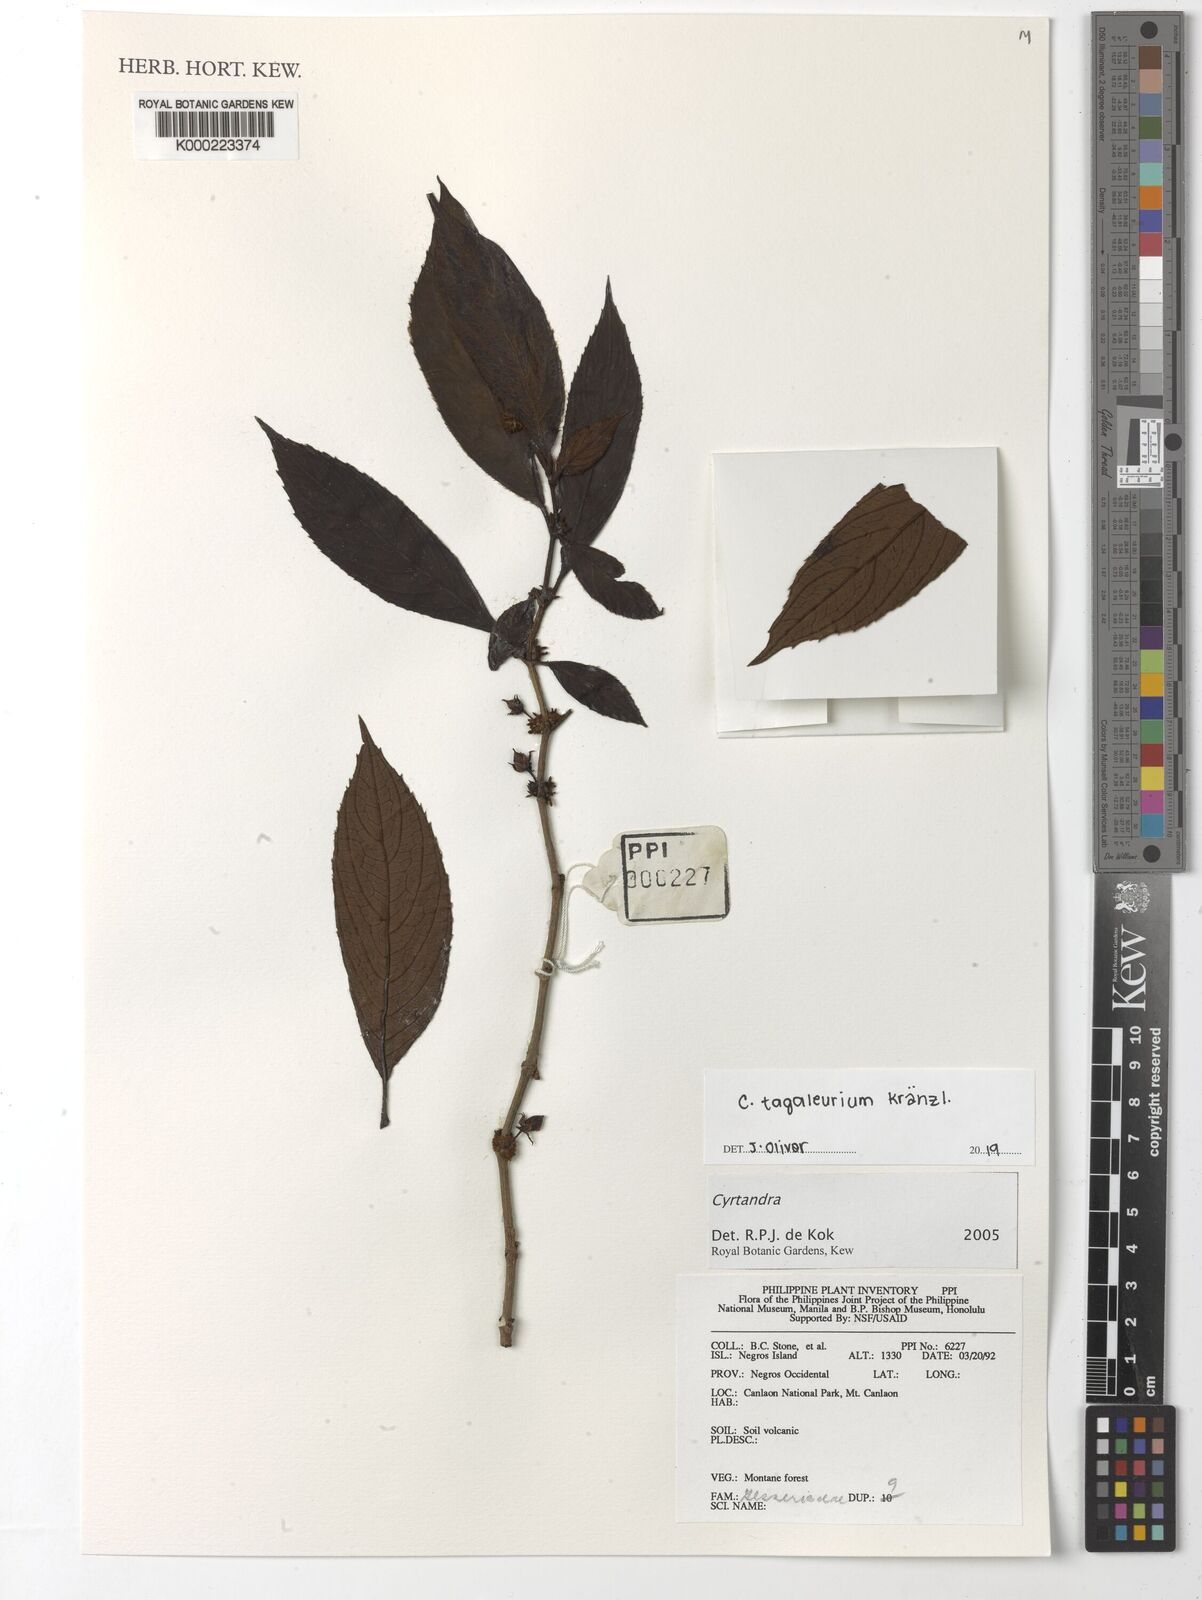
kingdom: Plantae
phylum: Tracheophyta
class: Magnoliopsida
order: Lamiales
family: Gesneriaceae
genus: Cyrtandra
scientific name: Cyrtandra
